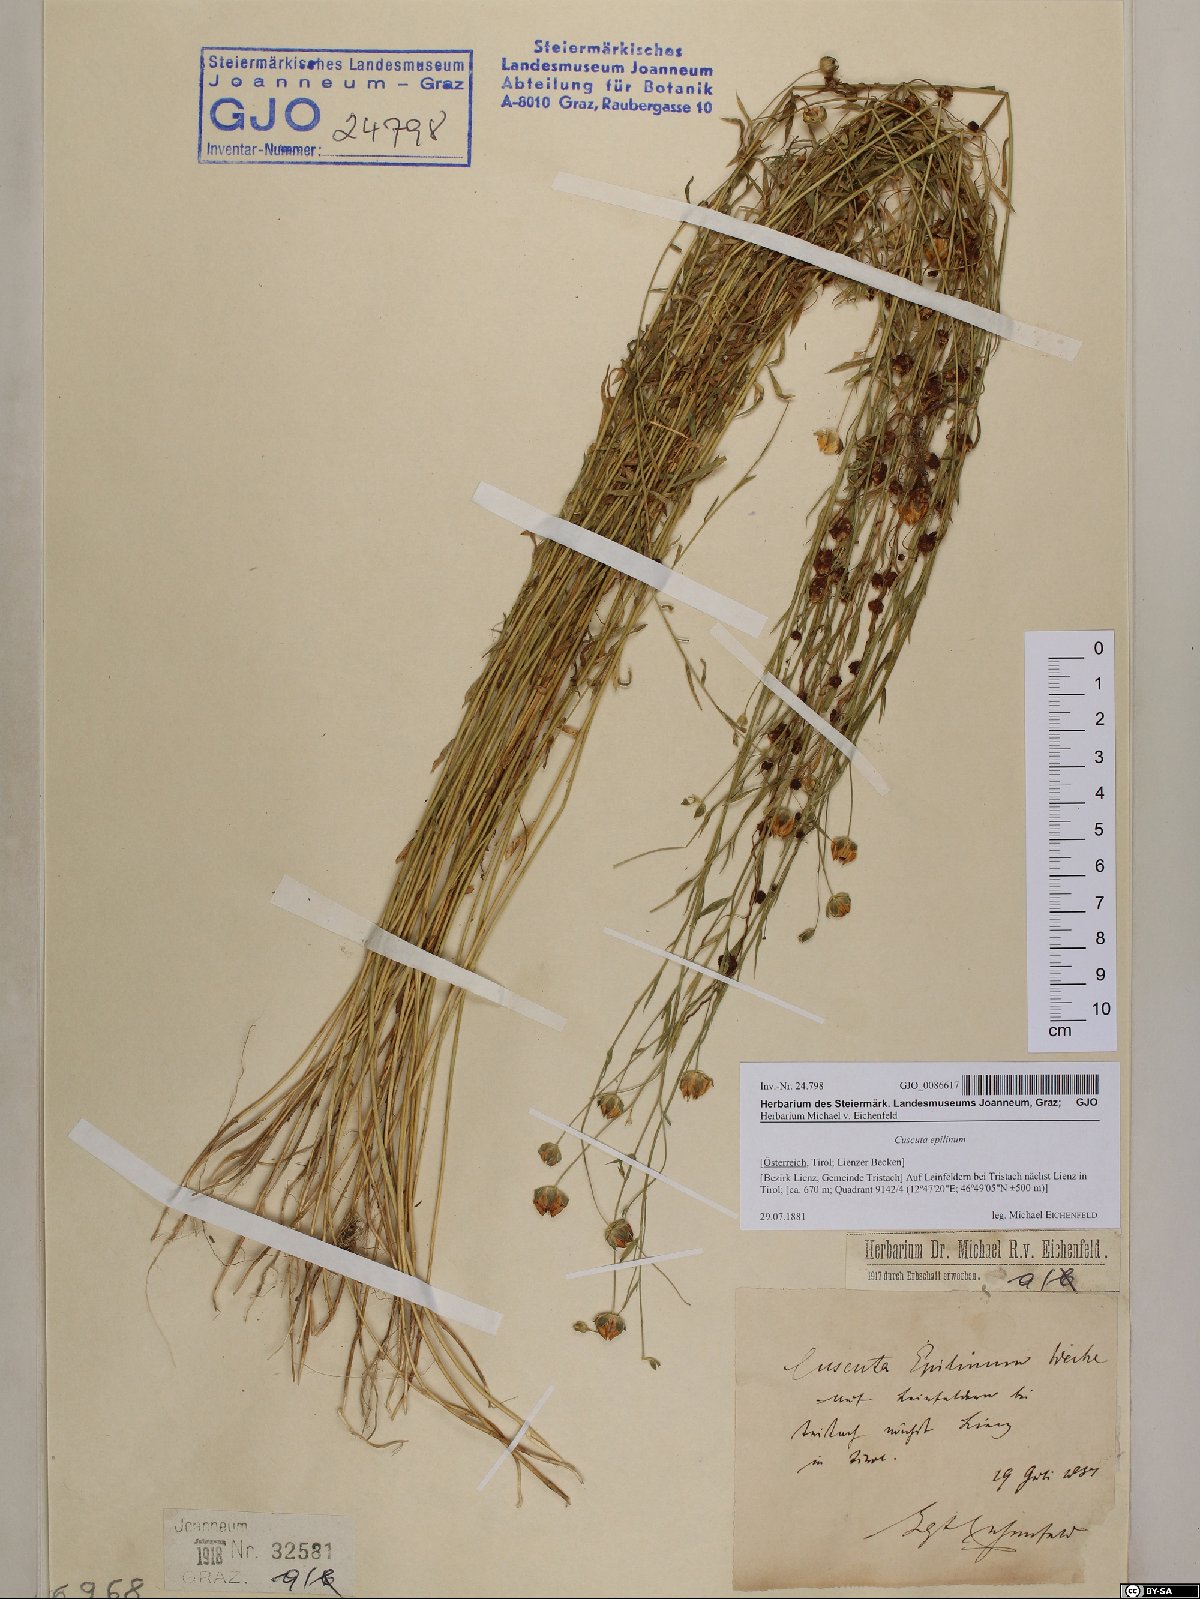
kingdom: Plantae
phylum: Tracheophyta
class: Magnoliopsida
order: Solanales
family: Convolvulaceae
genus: Cuscuta
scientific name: Cuscuta epilinum
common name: Flax dodder
